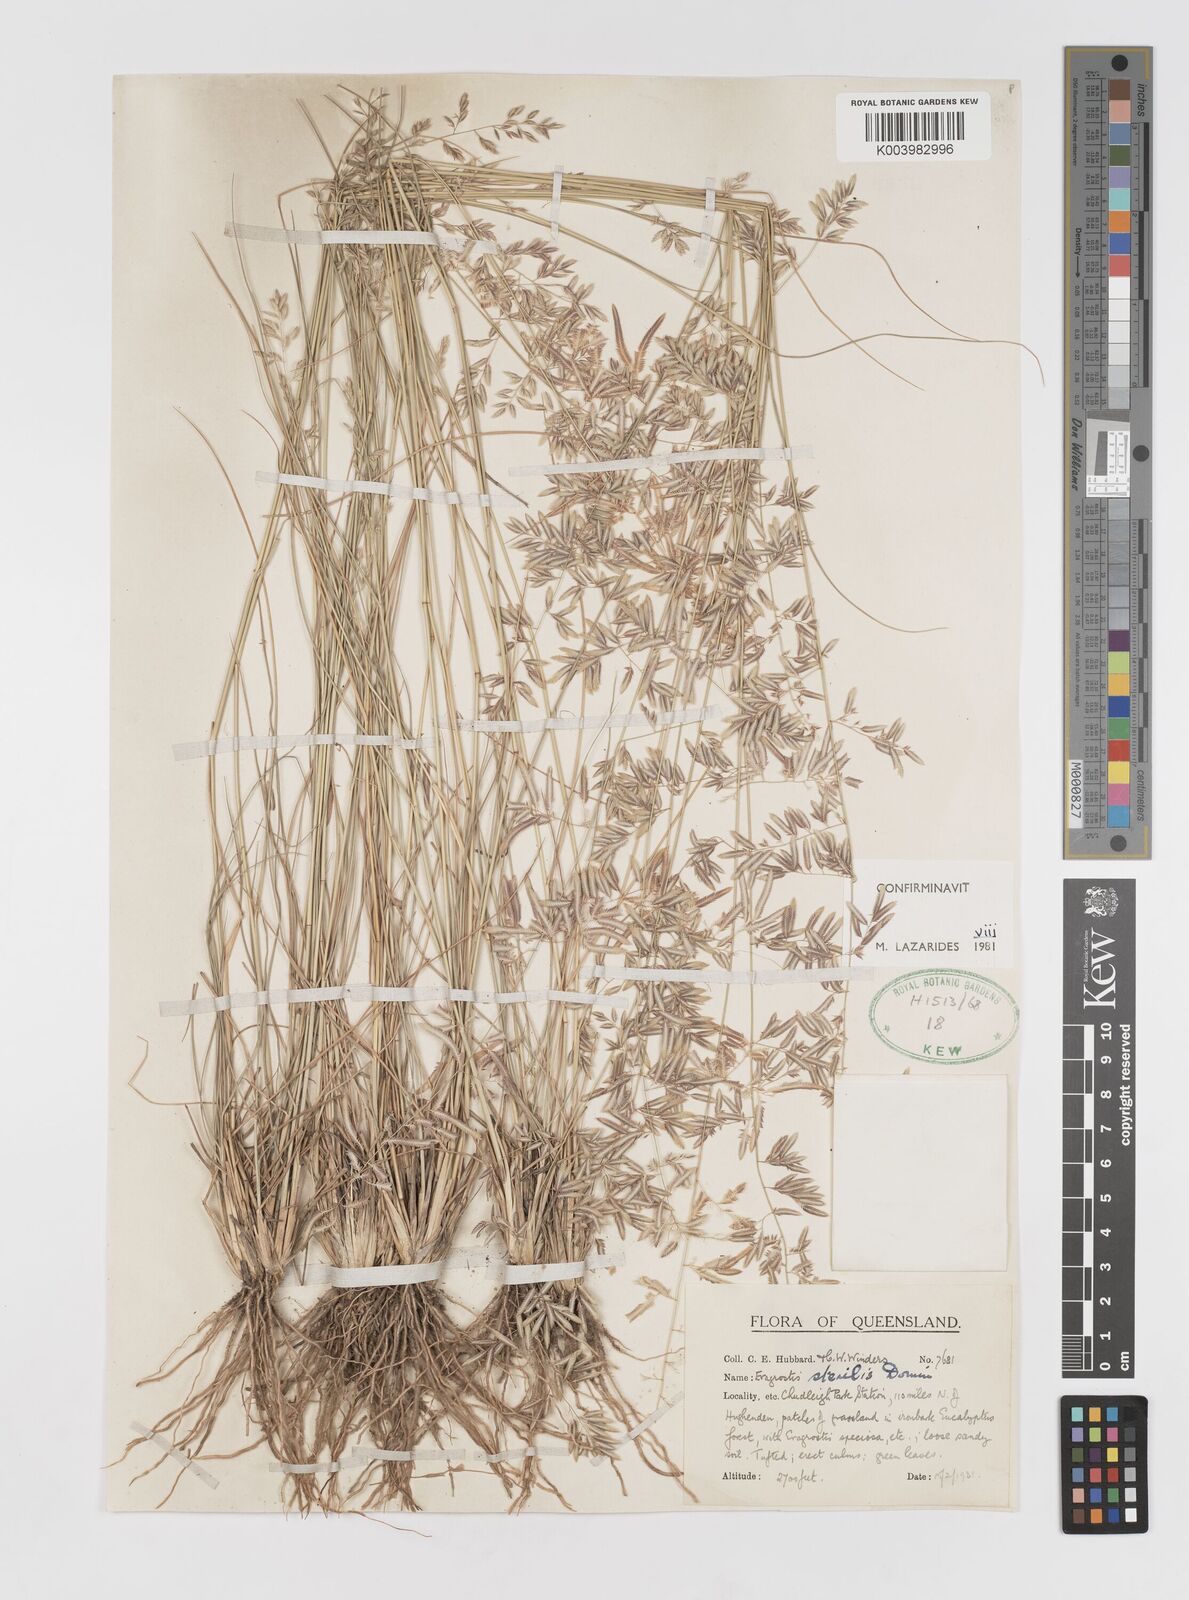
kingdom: Plantae
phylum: Tracheophyta
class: Liliopsida
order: Poales
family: Poaceae
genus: Eragrostis
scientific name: Eragrostis sterilis
